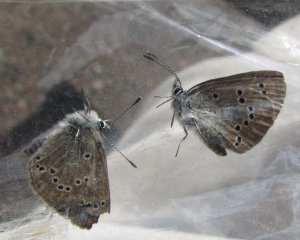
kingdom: Animalia
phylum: Arthropoda
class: Insecta
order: Lepidoptera
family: Lycaenidae
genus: Glaucopsyche
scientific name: Glaucopsyche lygdamus
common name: Silvery Blue
